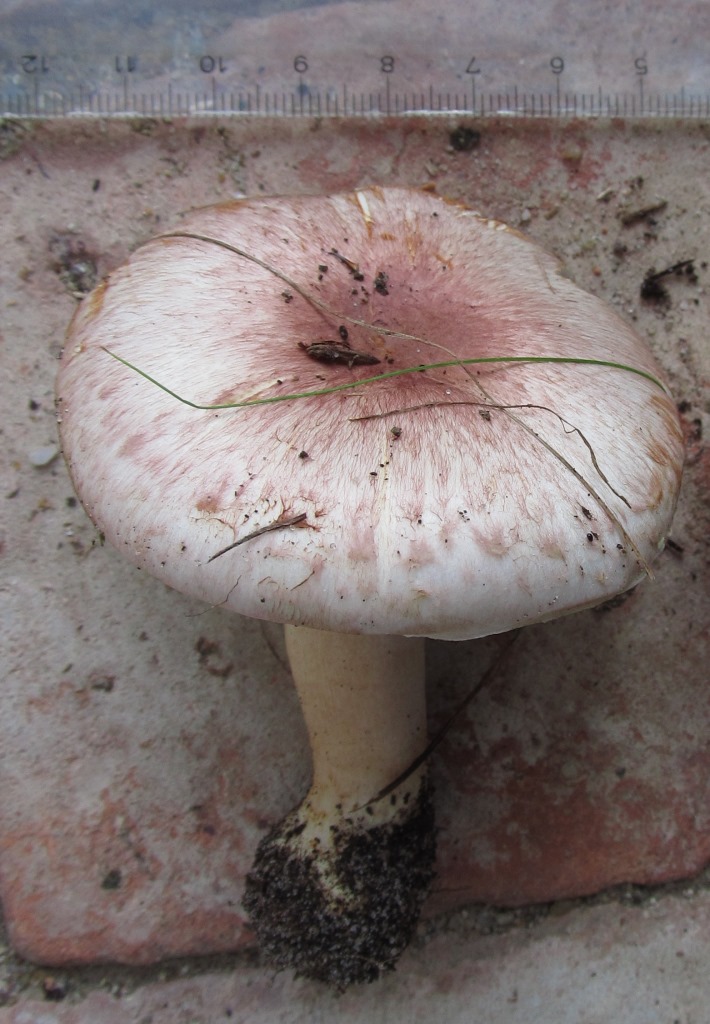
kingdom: Fungi
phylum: Basidiomycota
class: Agaricomycetes
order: Agaricales
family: Agaricaceae
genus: Agaricus
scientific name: Agaricus brunneolus
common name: purpur-champignon
